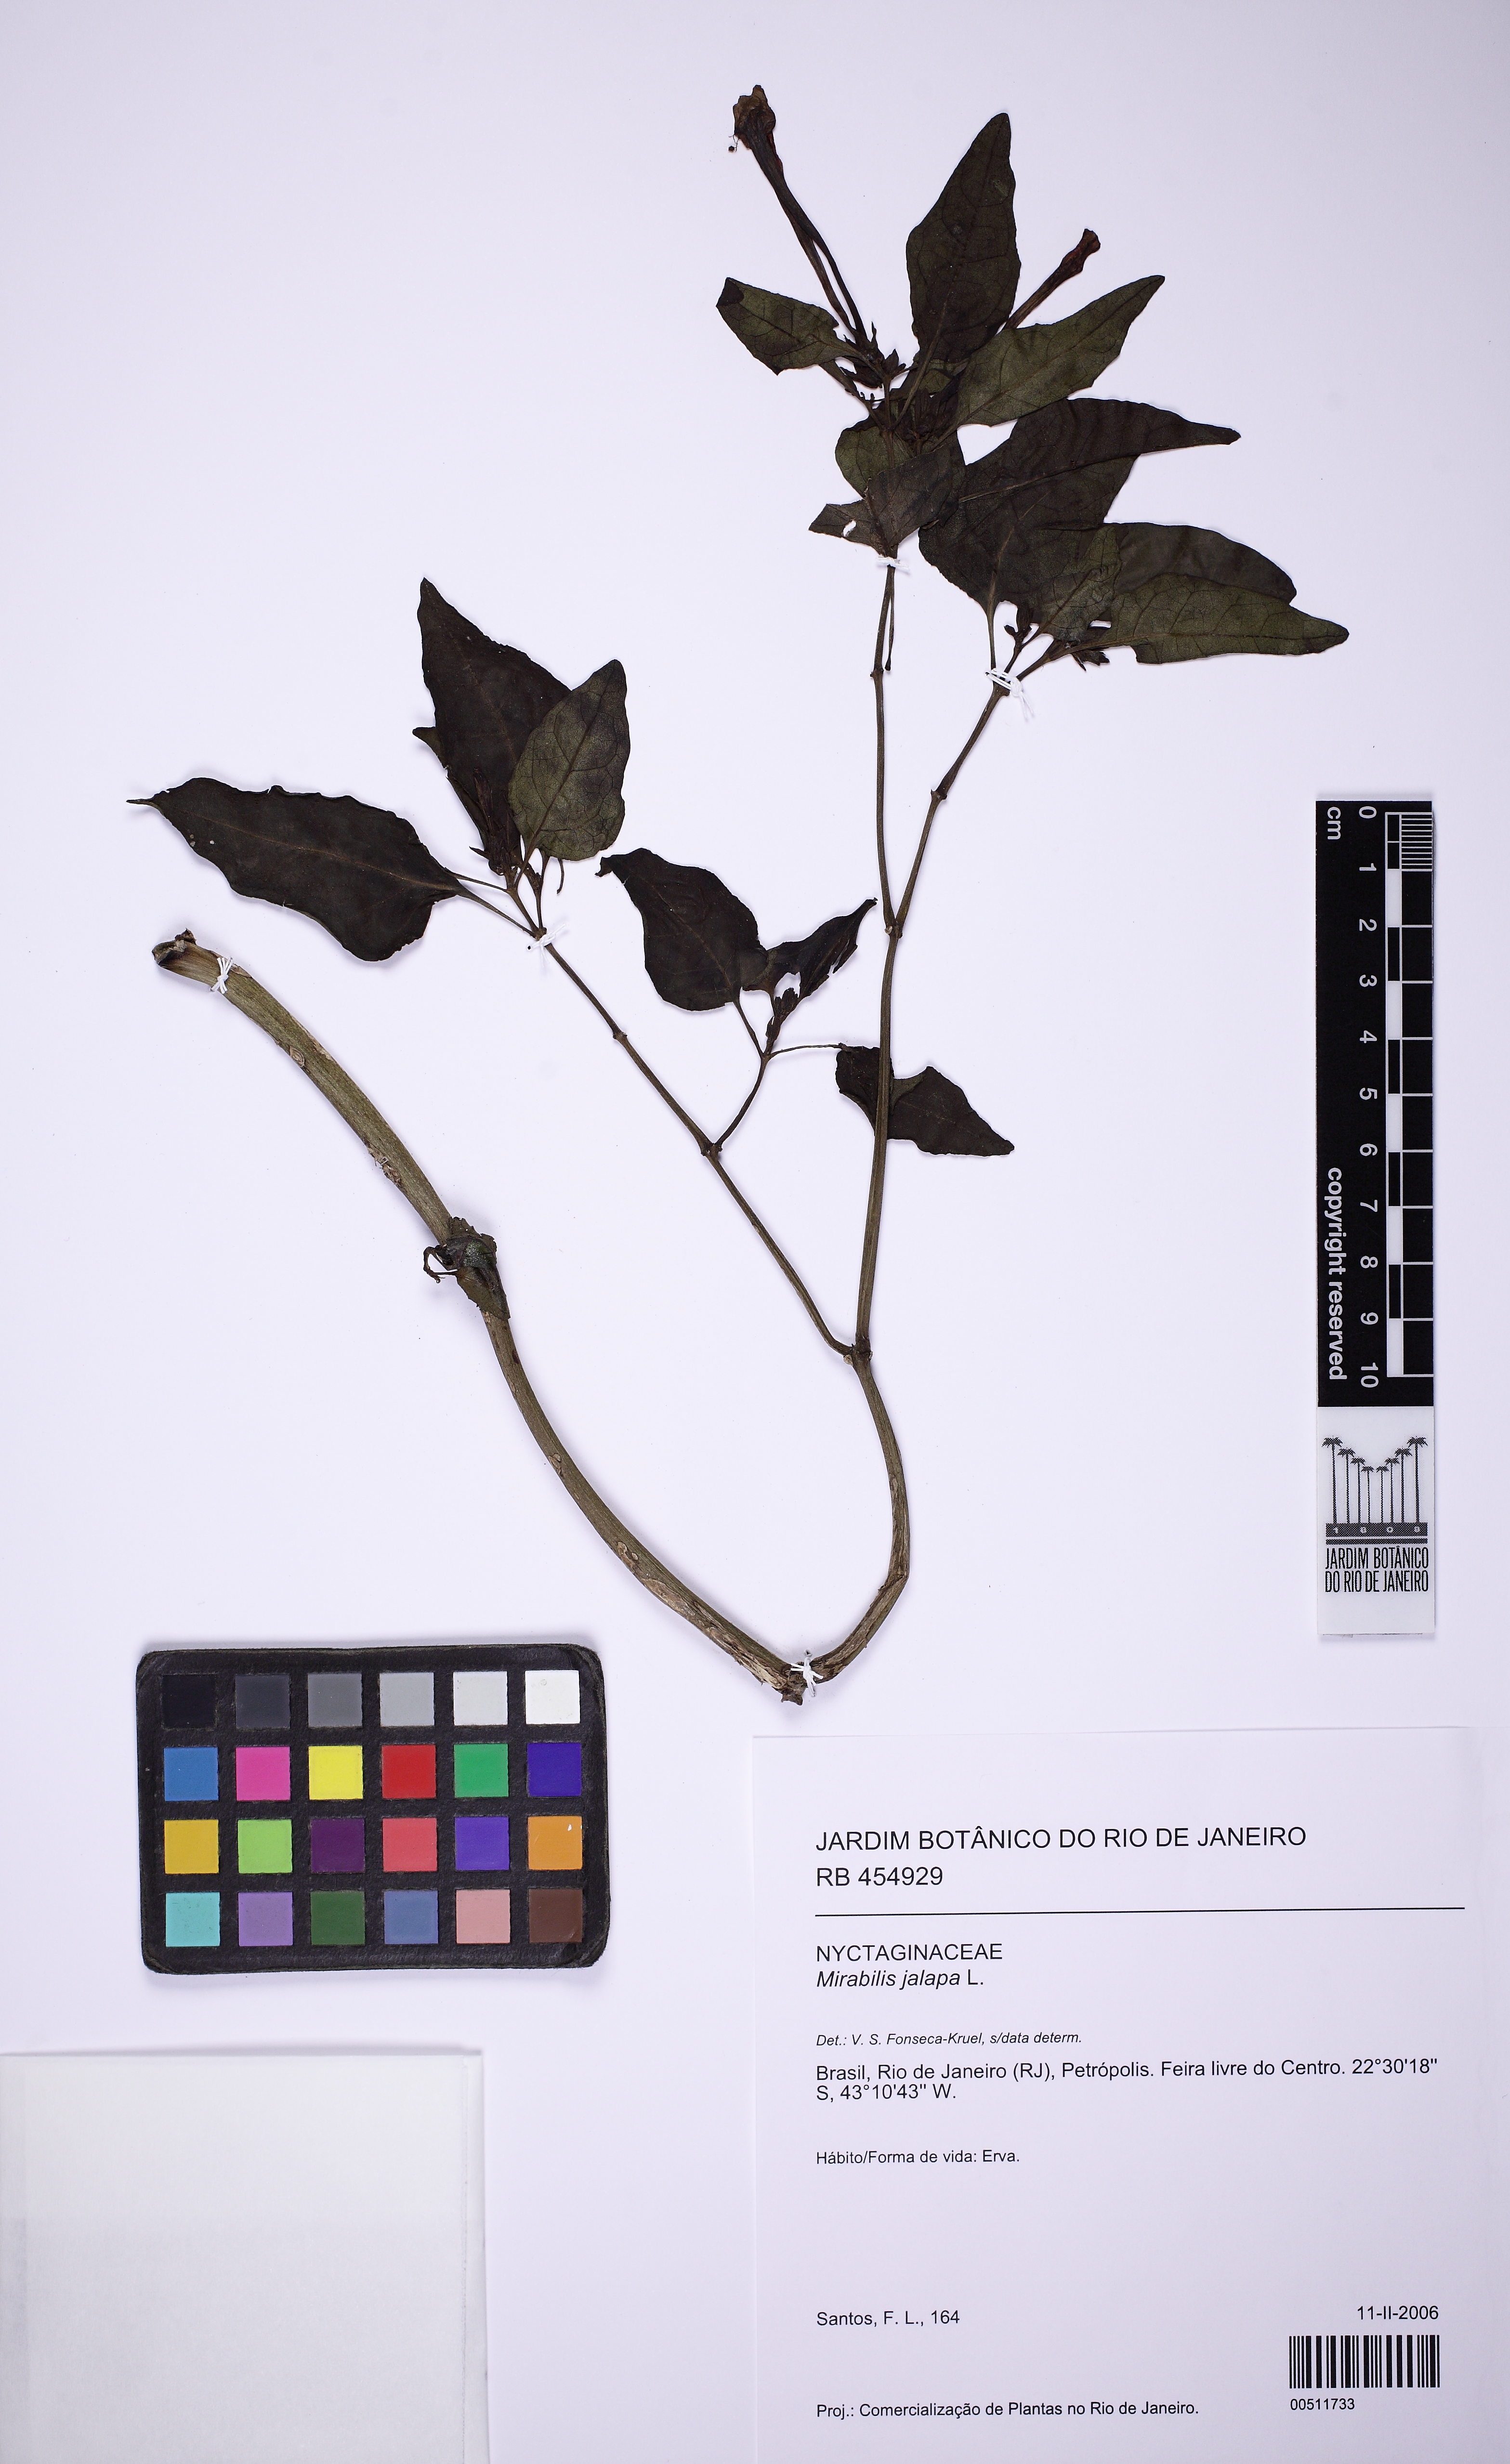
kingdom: Plantae
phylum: Tracheophyta
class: Magnoliopsida
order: Caryophyllales
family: Nyctaginaceae
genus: Mirabilis
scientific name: Mirabilis jalapa
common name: Marvel-of-peru
